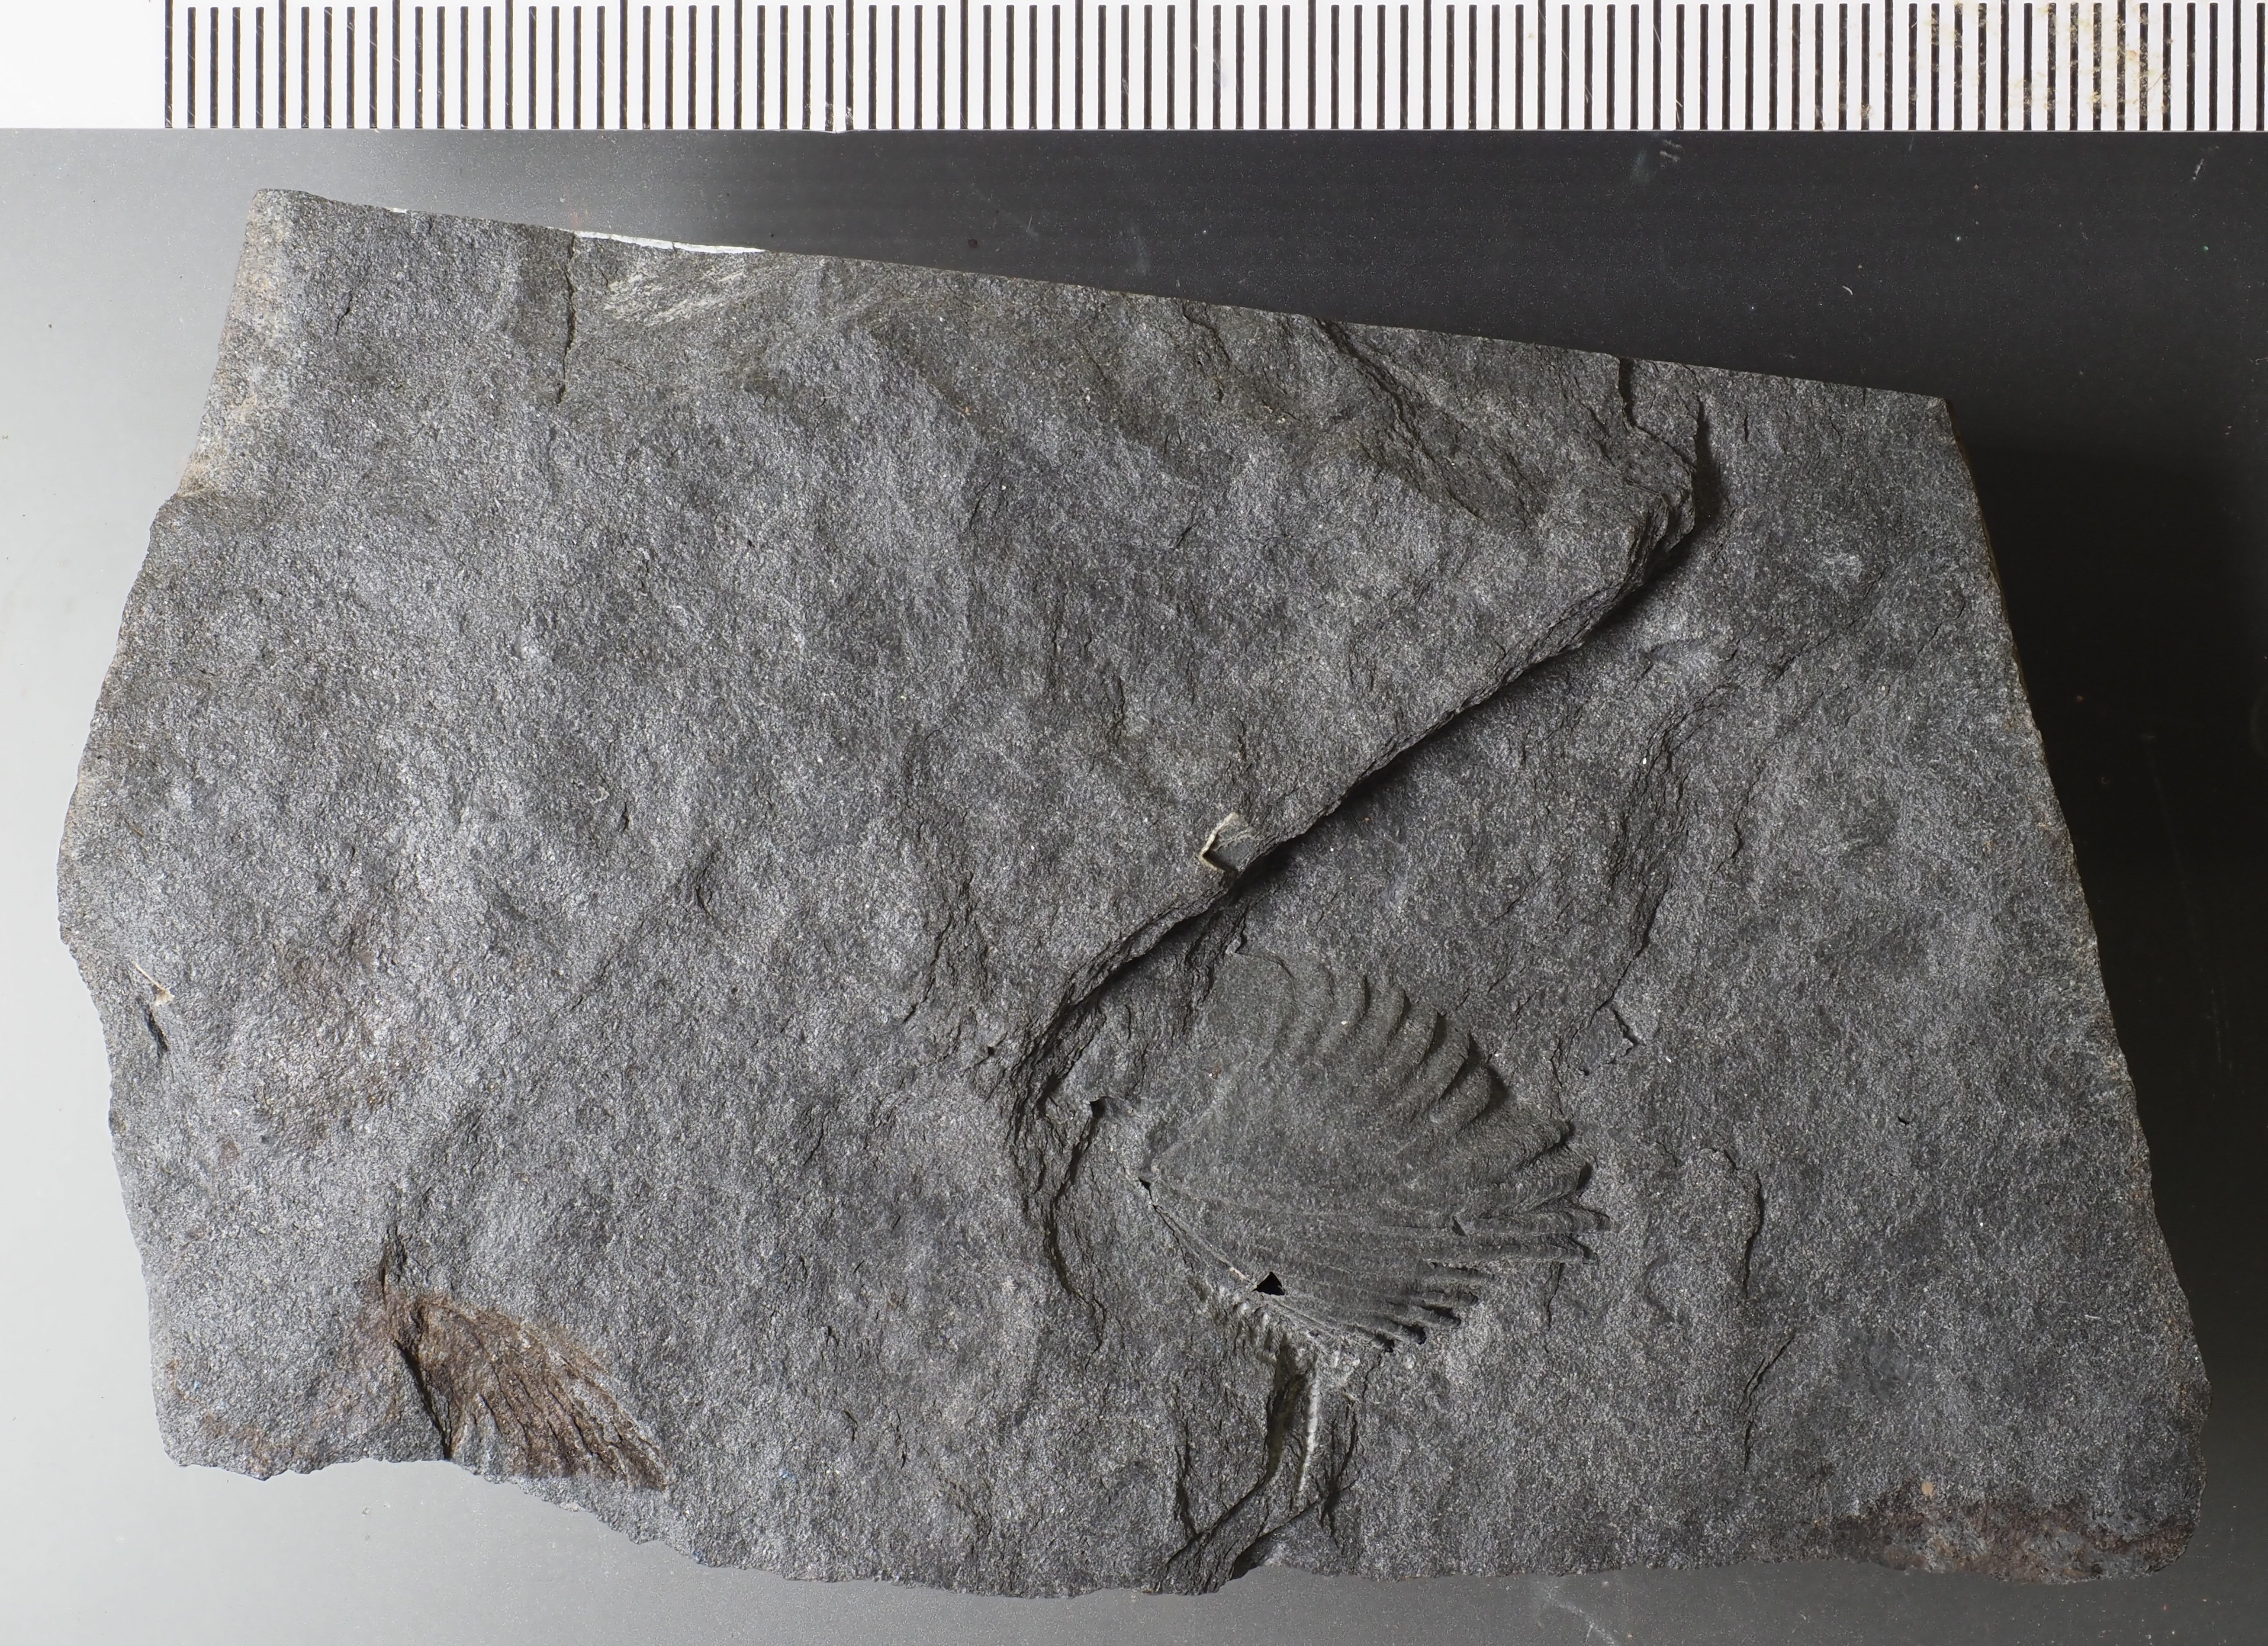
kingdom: Animalia
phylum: Brachiopoda
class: Rhynchonellata
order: Rhynchonellida
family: Trigonirhynchiidae
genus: Oligoptycherhynchus
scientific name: Oligoptycherhynchus
